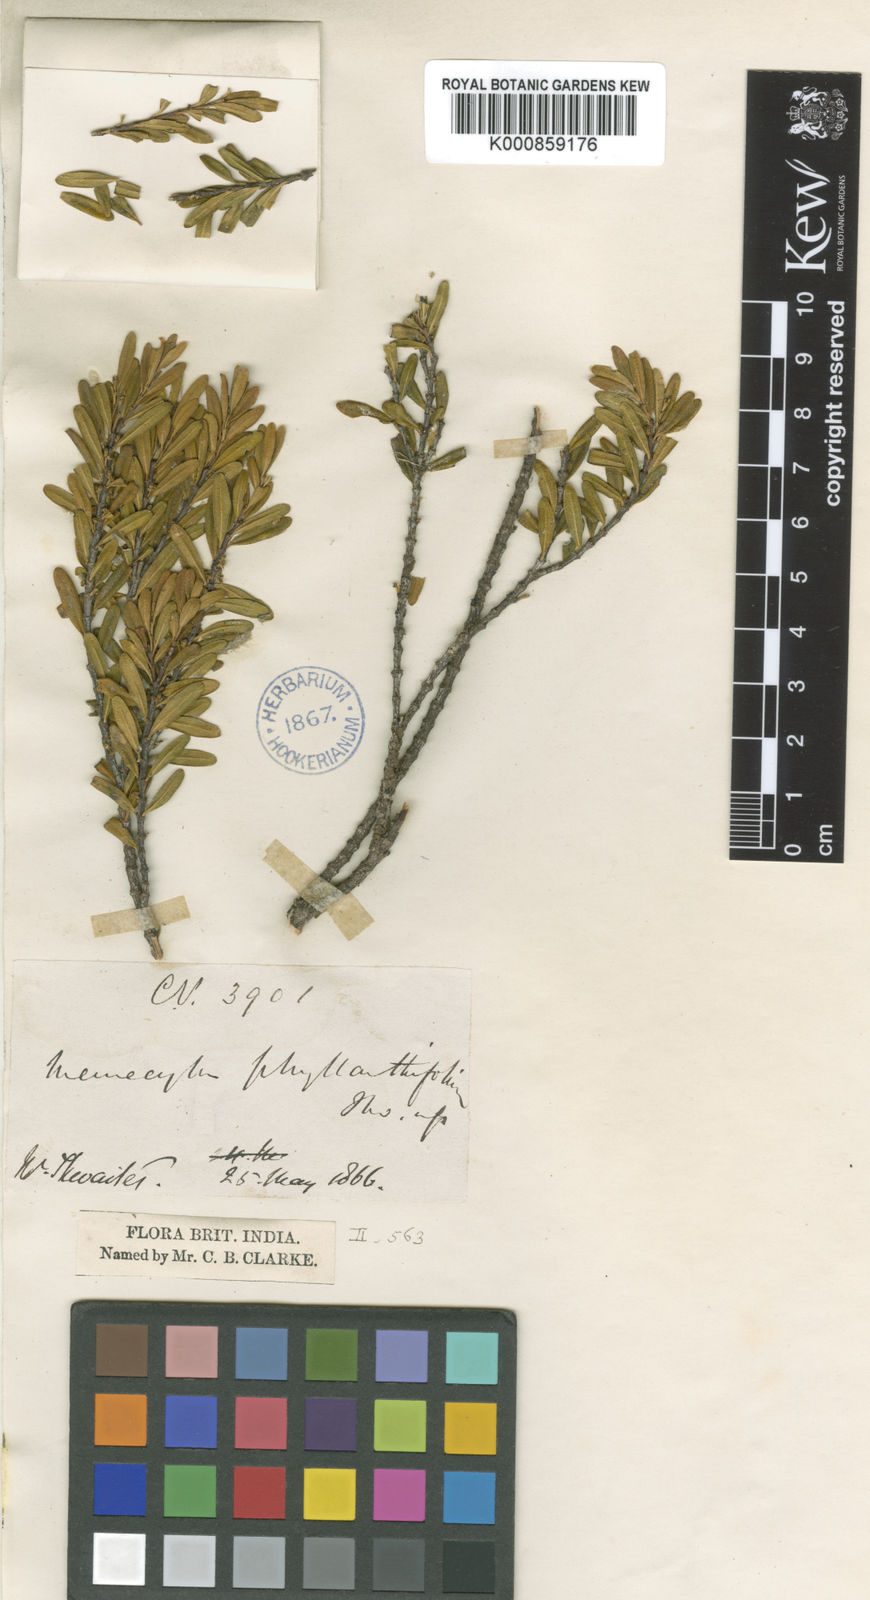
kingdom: Plantae
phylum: Tracheophyta
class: Magnoliopsida
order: Myrtales
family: Melastomataceae
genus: Memecylon
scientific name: Memecylon phyllanthifolium
